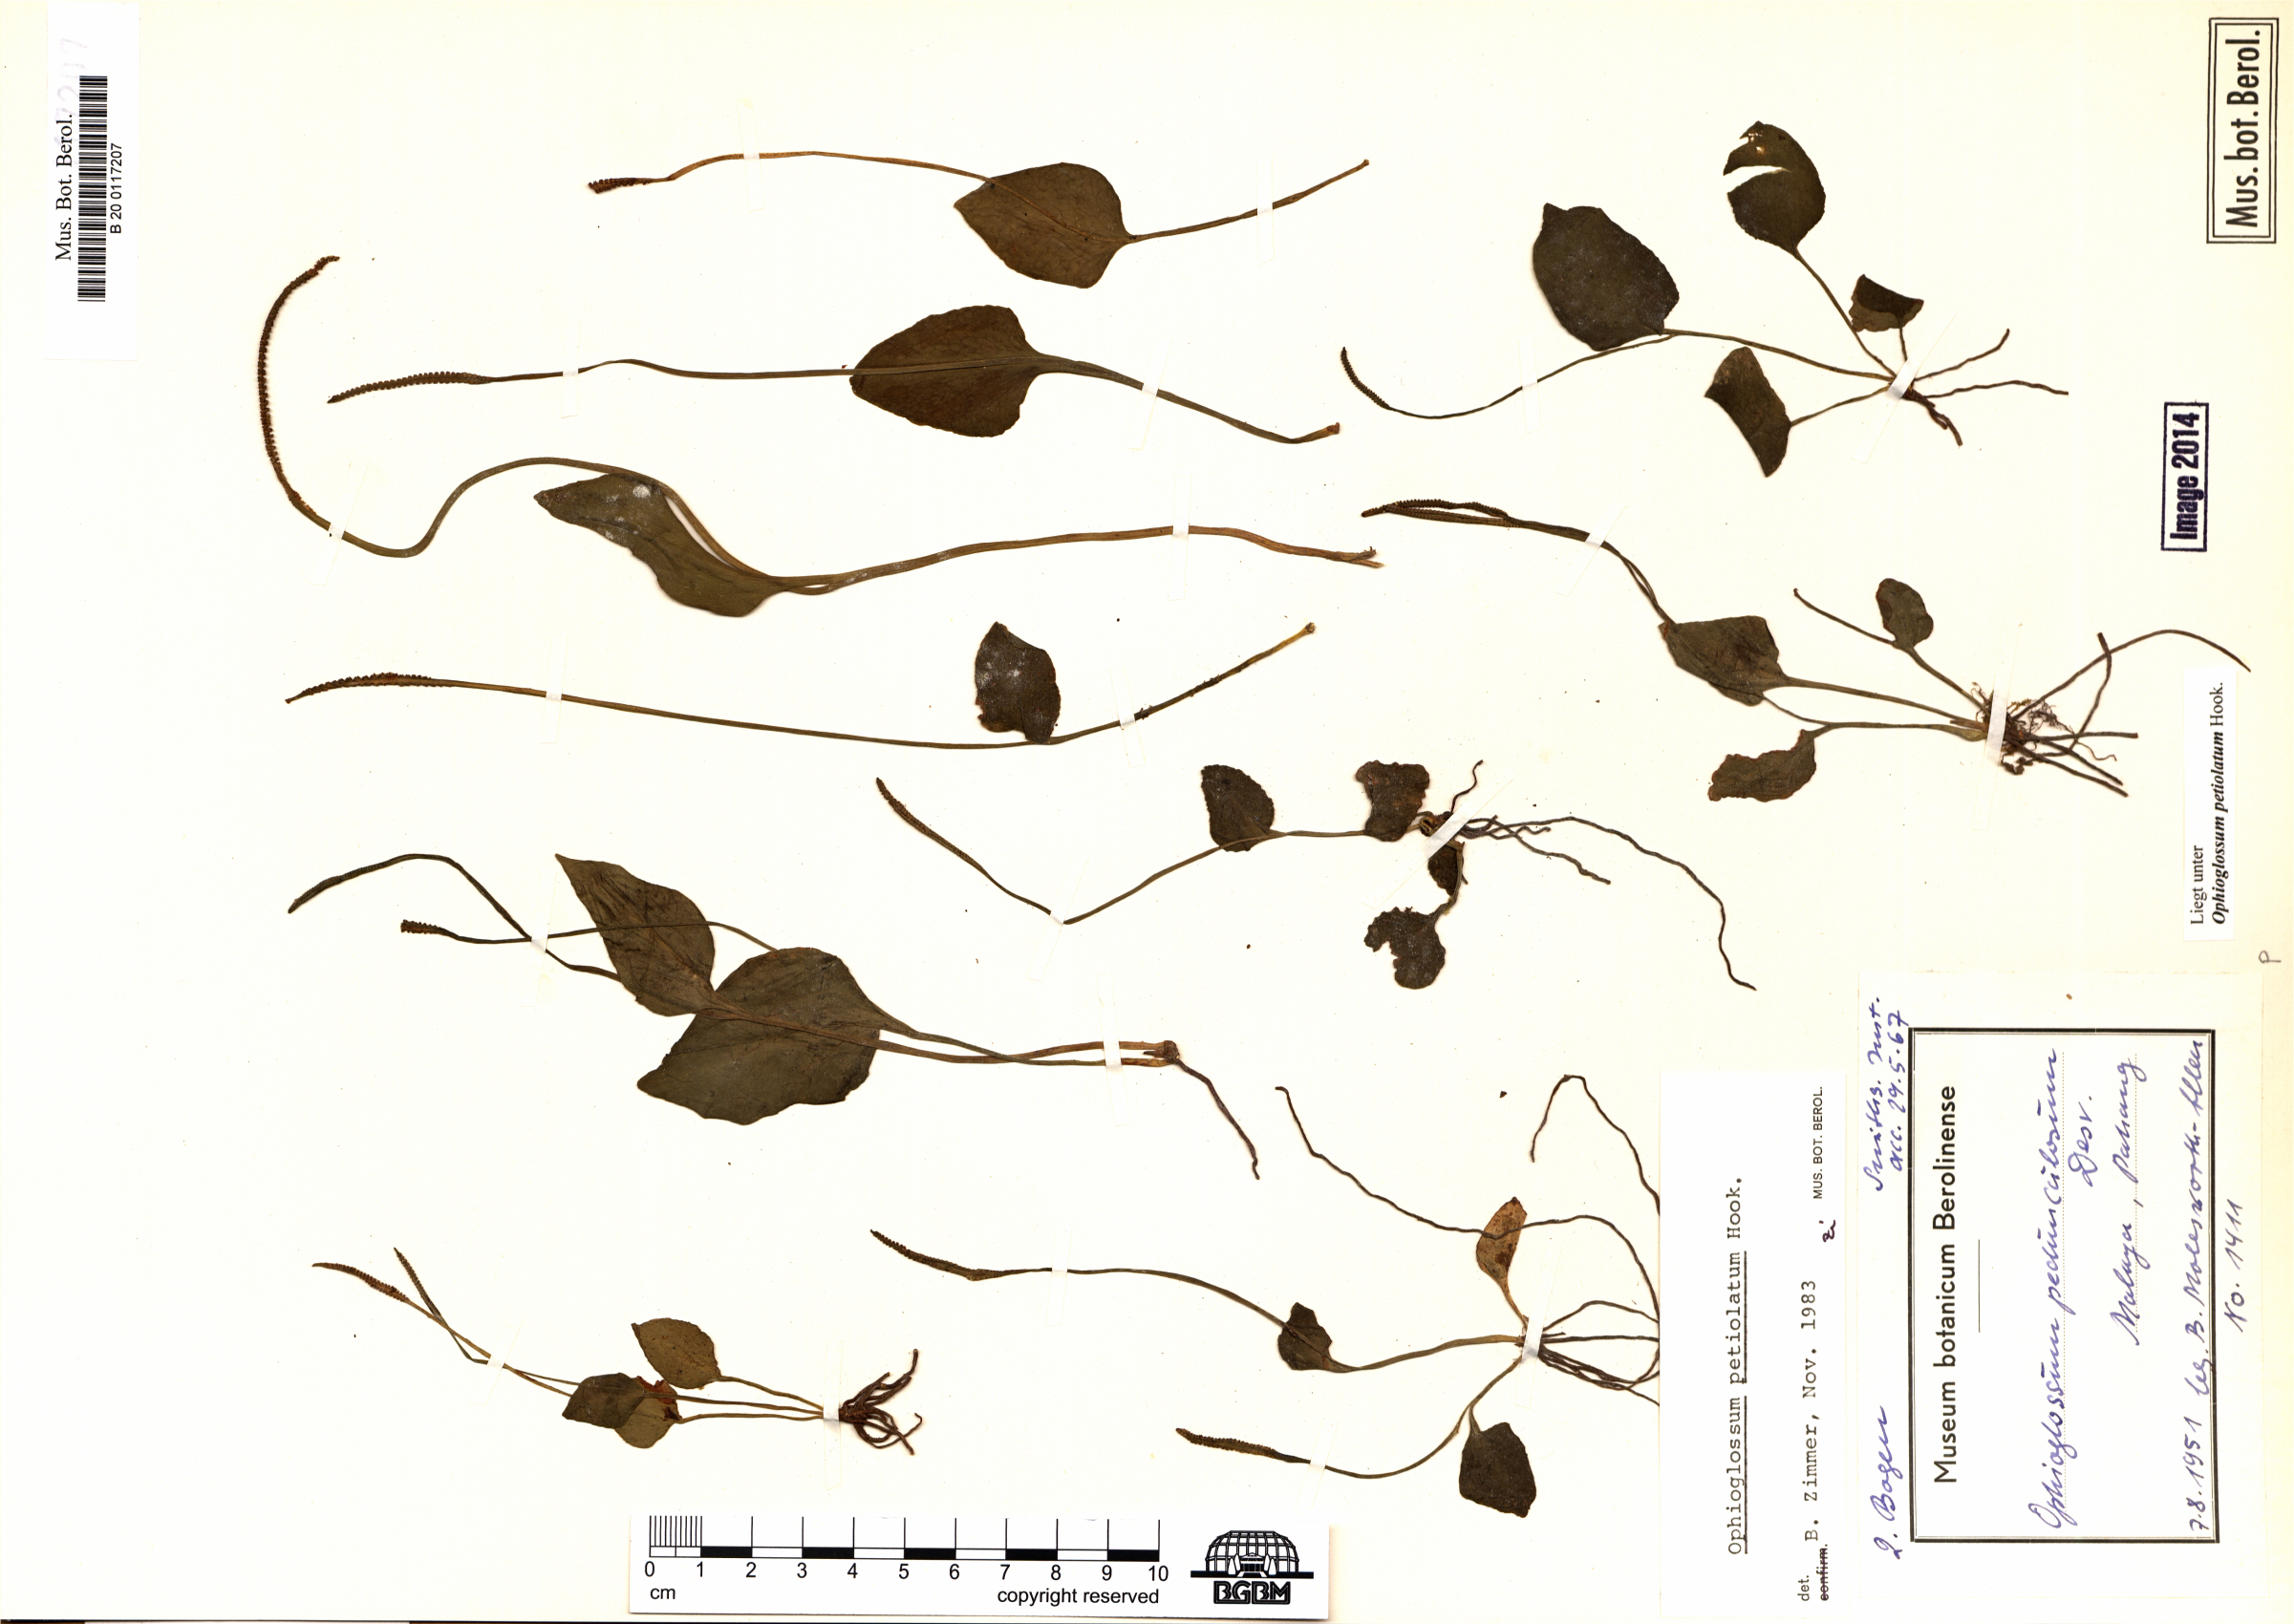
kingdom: Plantae
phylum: Tracheophyta
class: Polypodiopsida
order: Ophioglossales
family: Ophioglossaceae
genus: Ophioglossum
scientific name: Ophioglossum petiolatum
